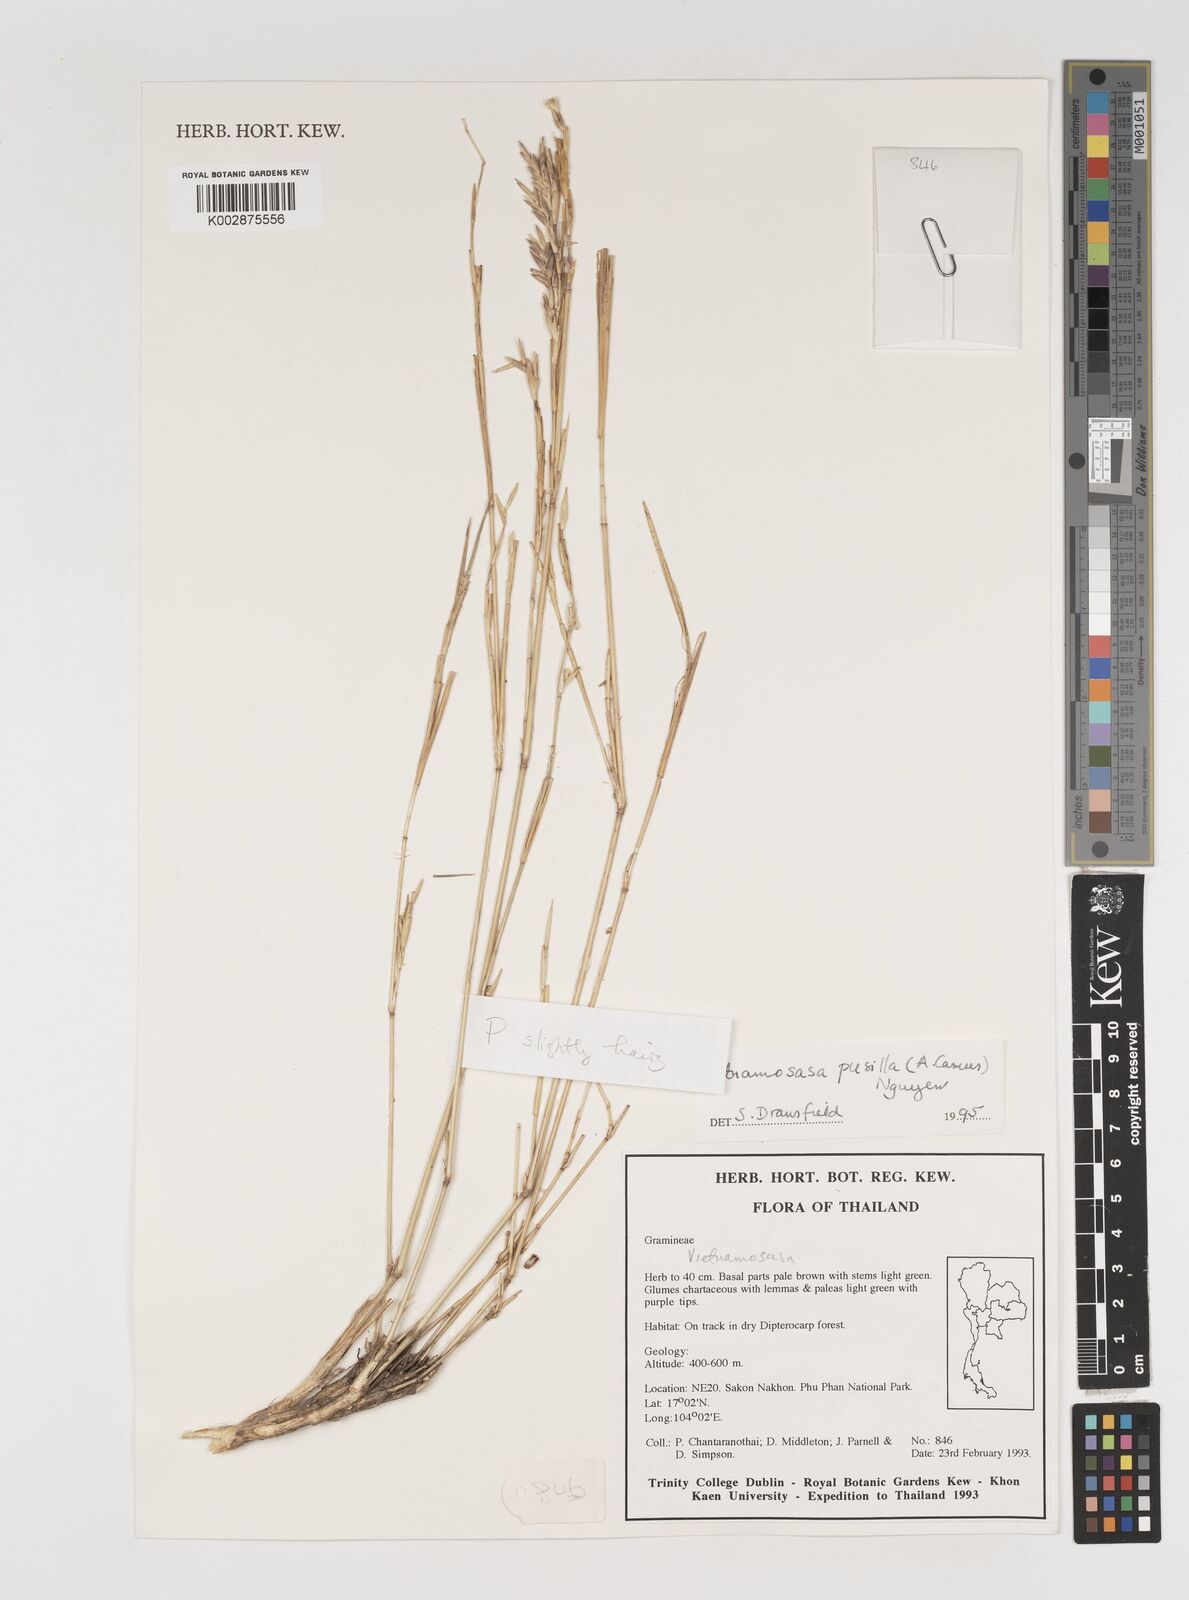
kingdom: Plantae
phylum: Tracheophyta
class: Liliopsida
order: Poales
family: Poaceae
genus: Vietnamosasa
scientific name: Vietnamosasa pusilla
